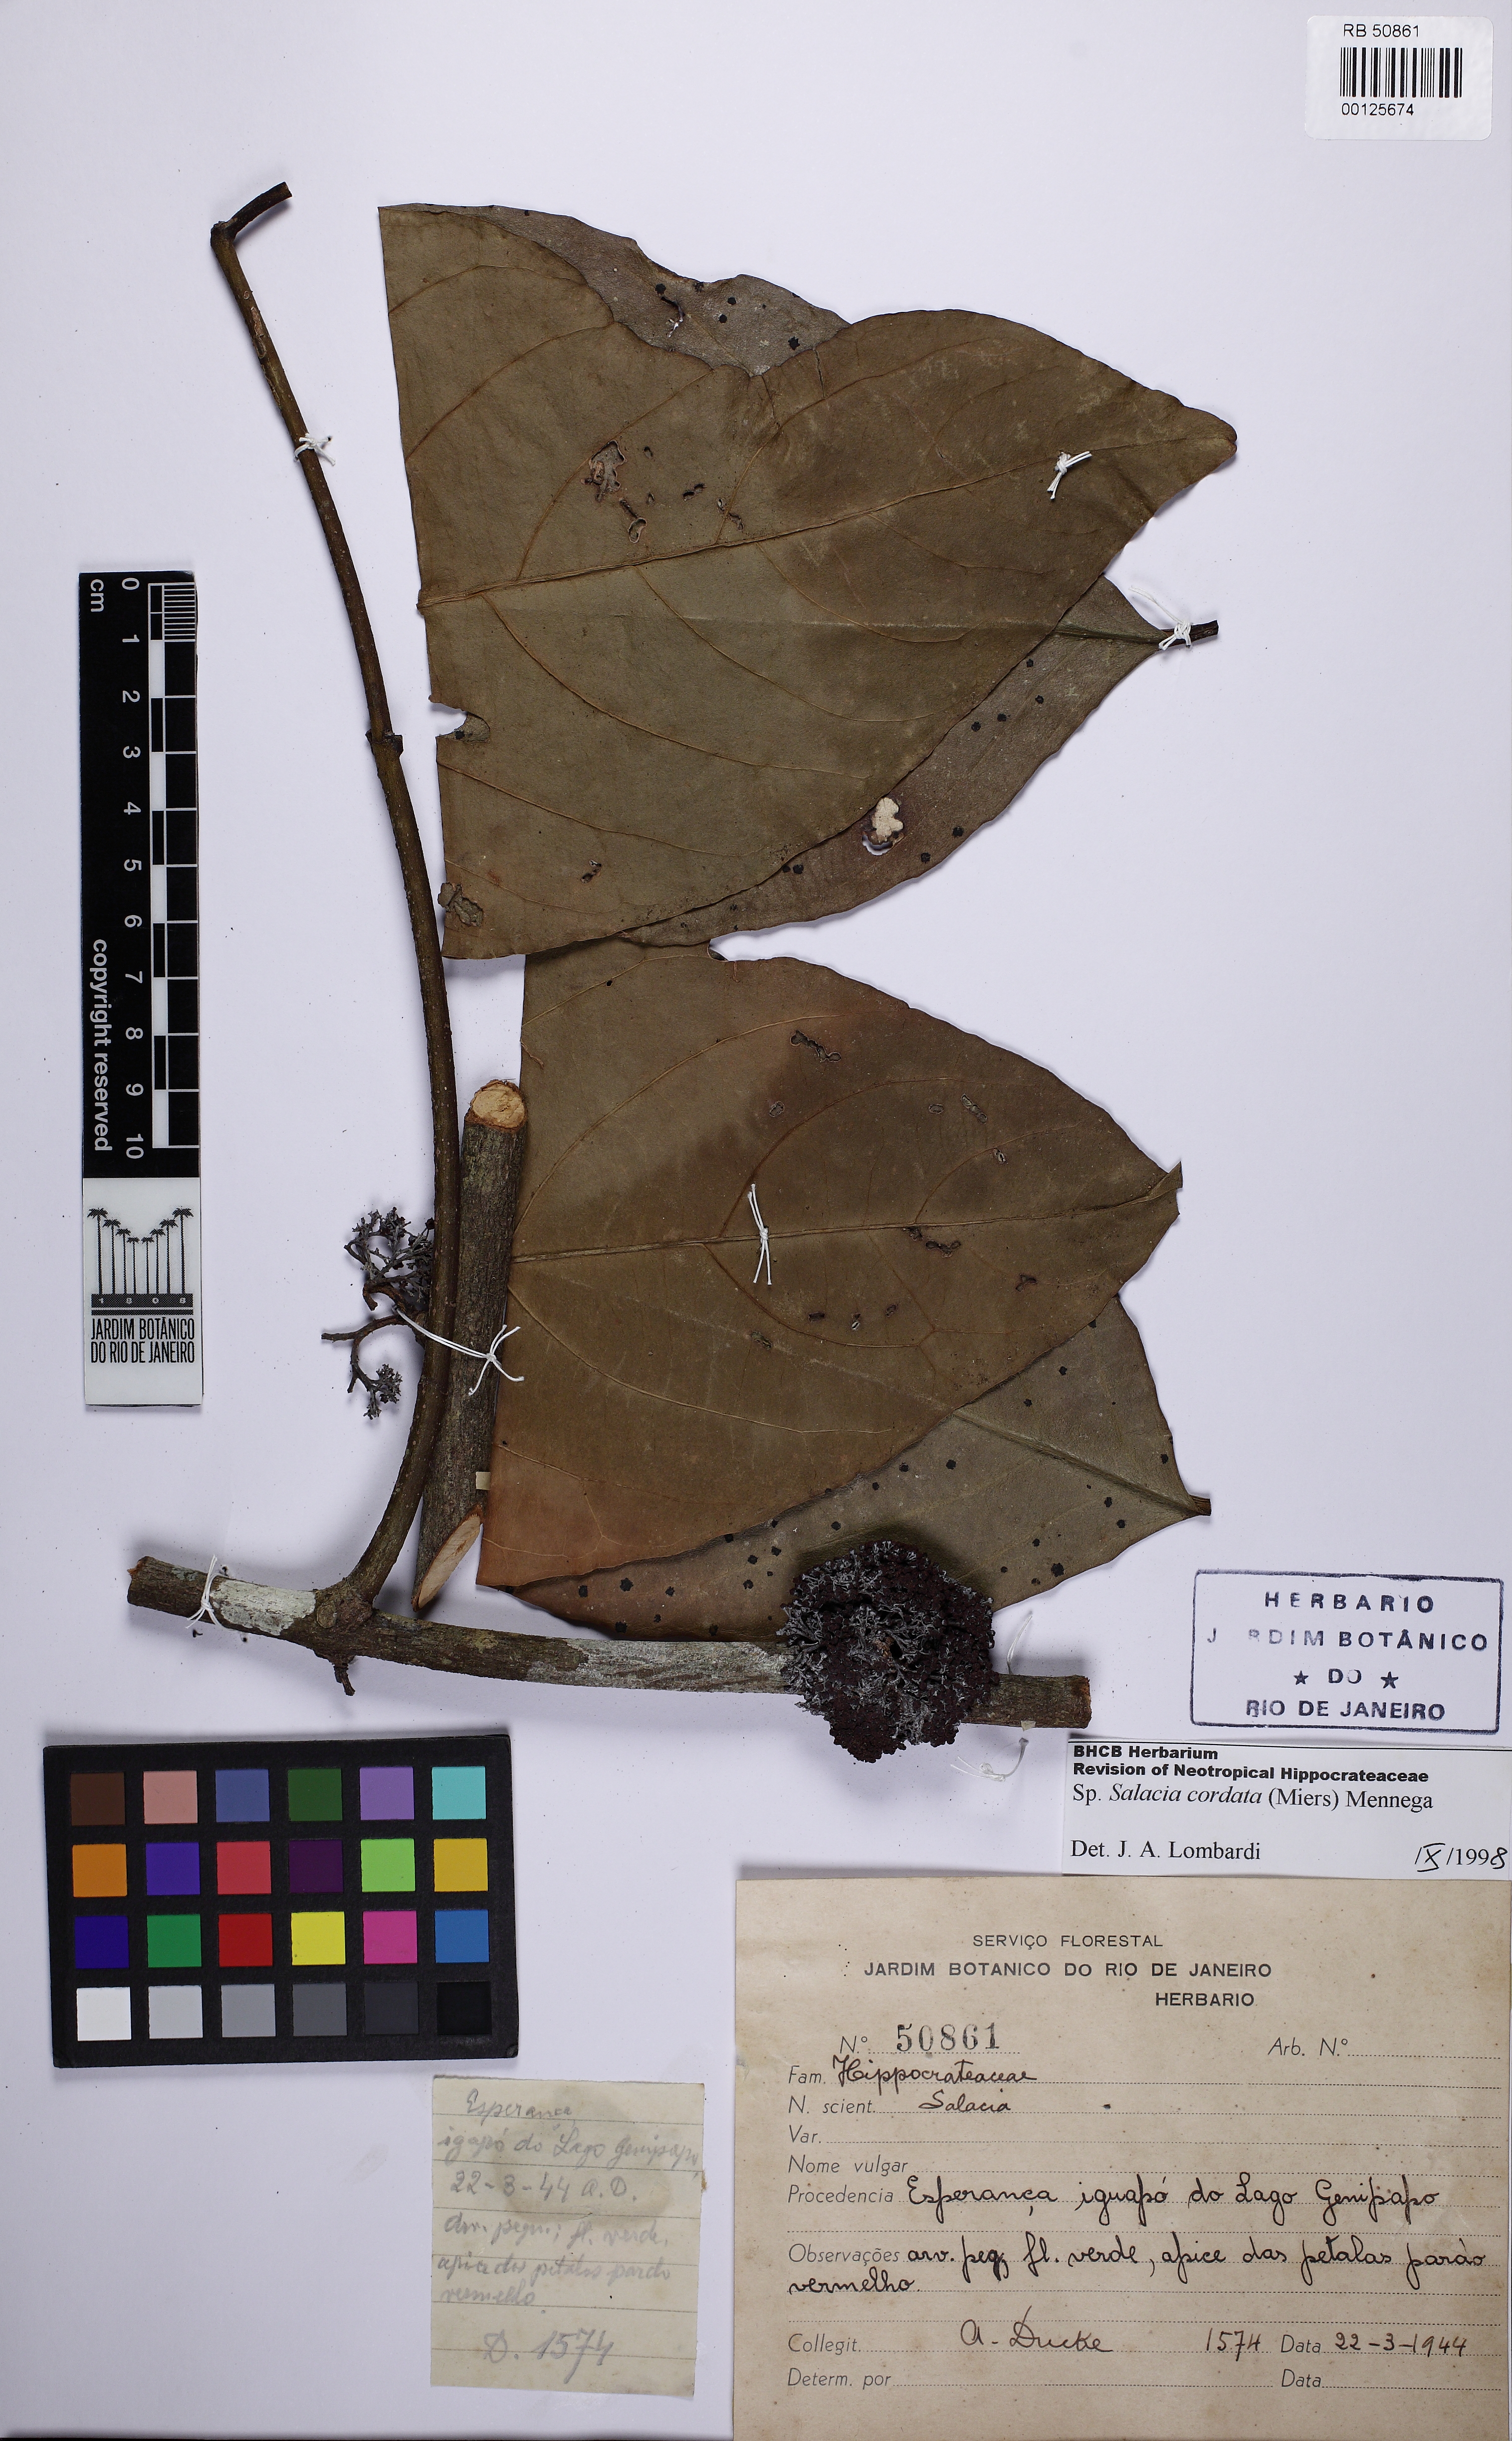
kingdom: Plantae
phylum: Tracheophyta
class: Magnoliopsida
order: Celastrales
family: Celastraceae
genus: Salacia
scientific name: Salacia cordata
